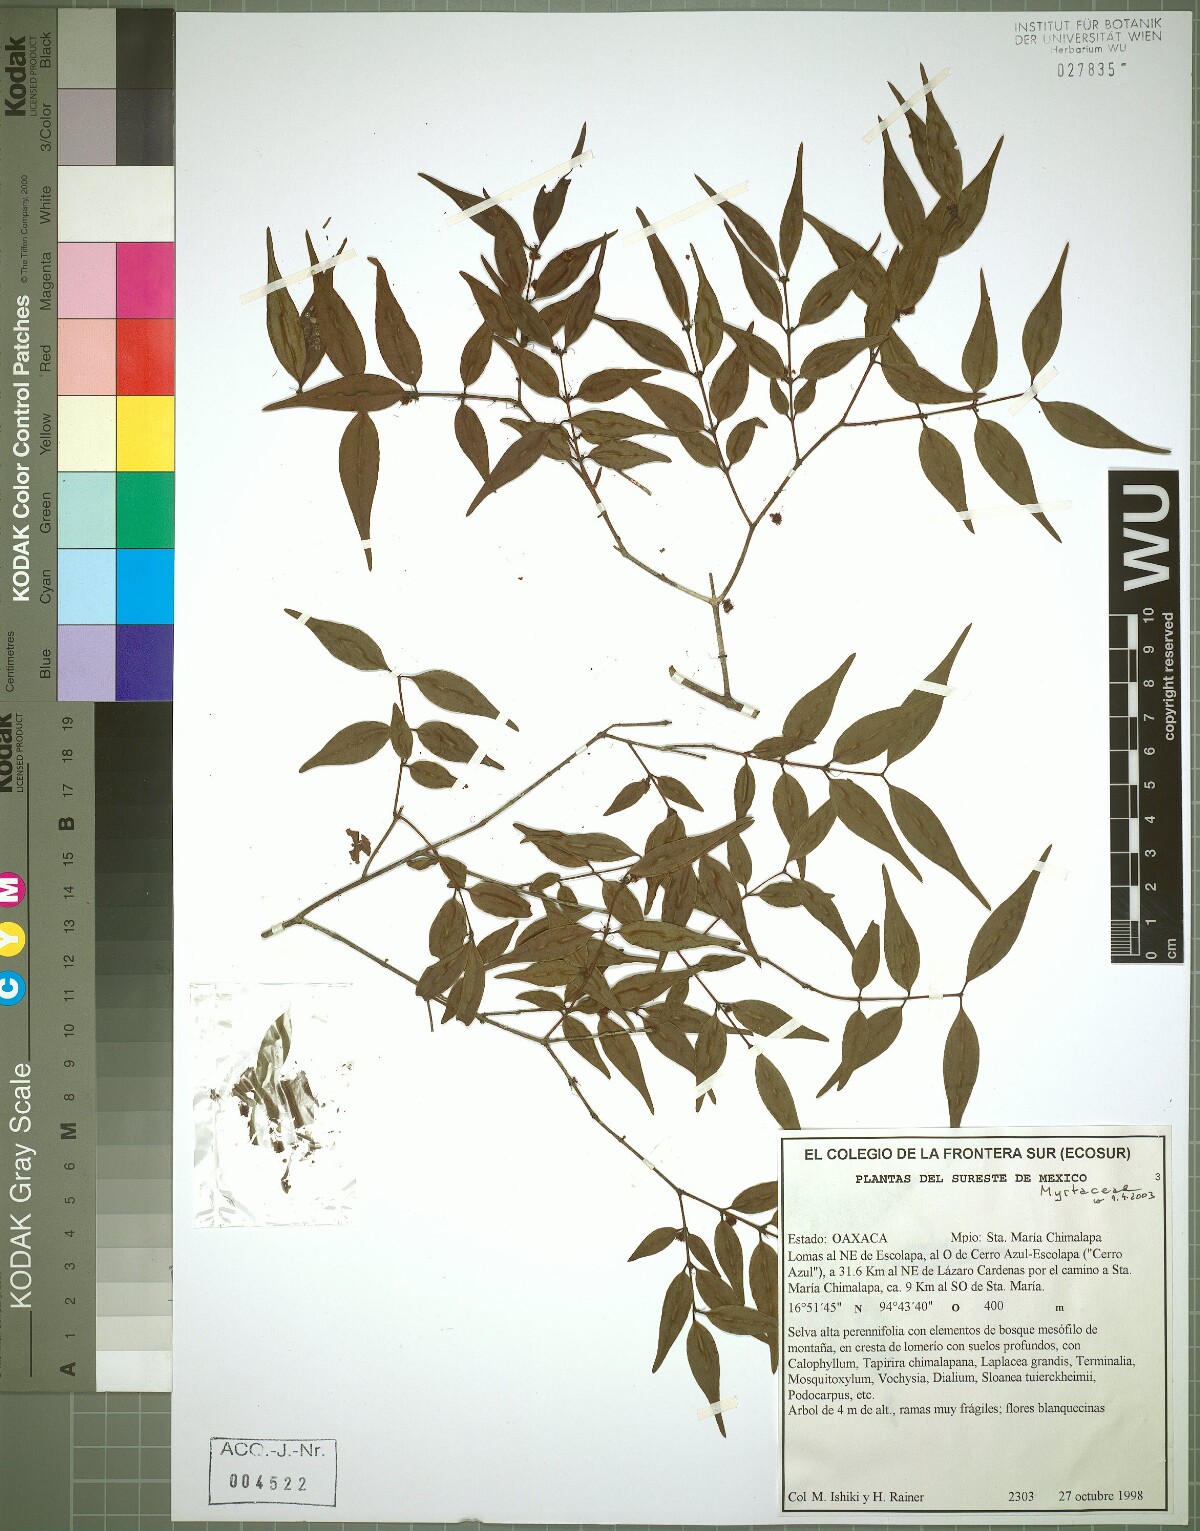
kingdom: Plantae
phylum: Tracheophyta
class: Magnoliopsida
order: Myrtales
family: Myrtaceae
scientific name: Myrtaceae
